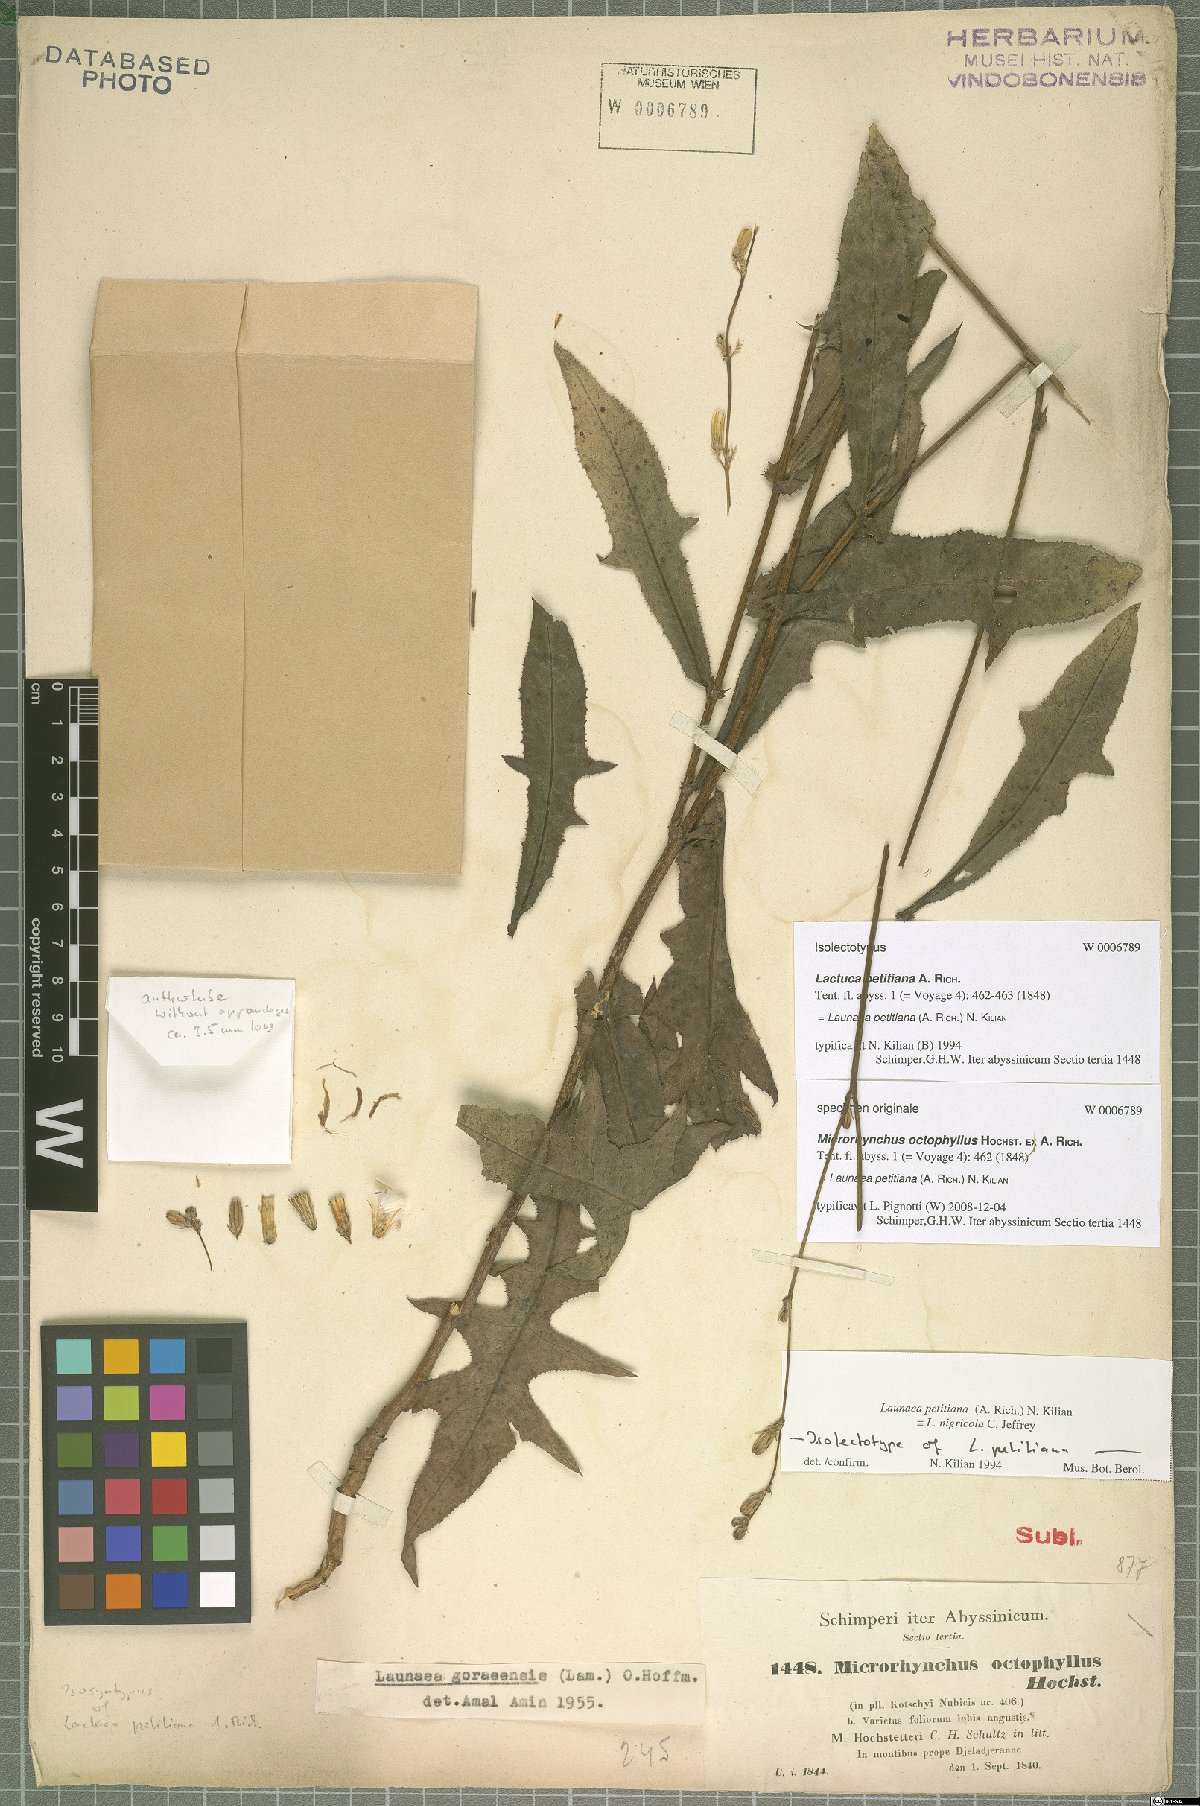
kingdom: Plantae
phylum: Tracheophyta
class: Magnoliopsida
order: Asterales
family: Asteraceae
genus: Launaea
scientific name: Launaea petitiana
